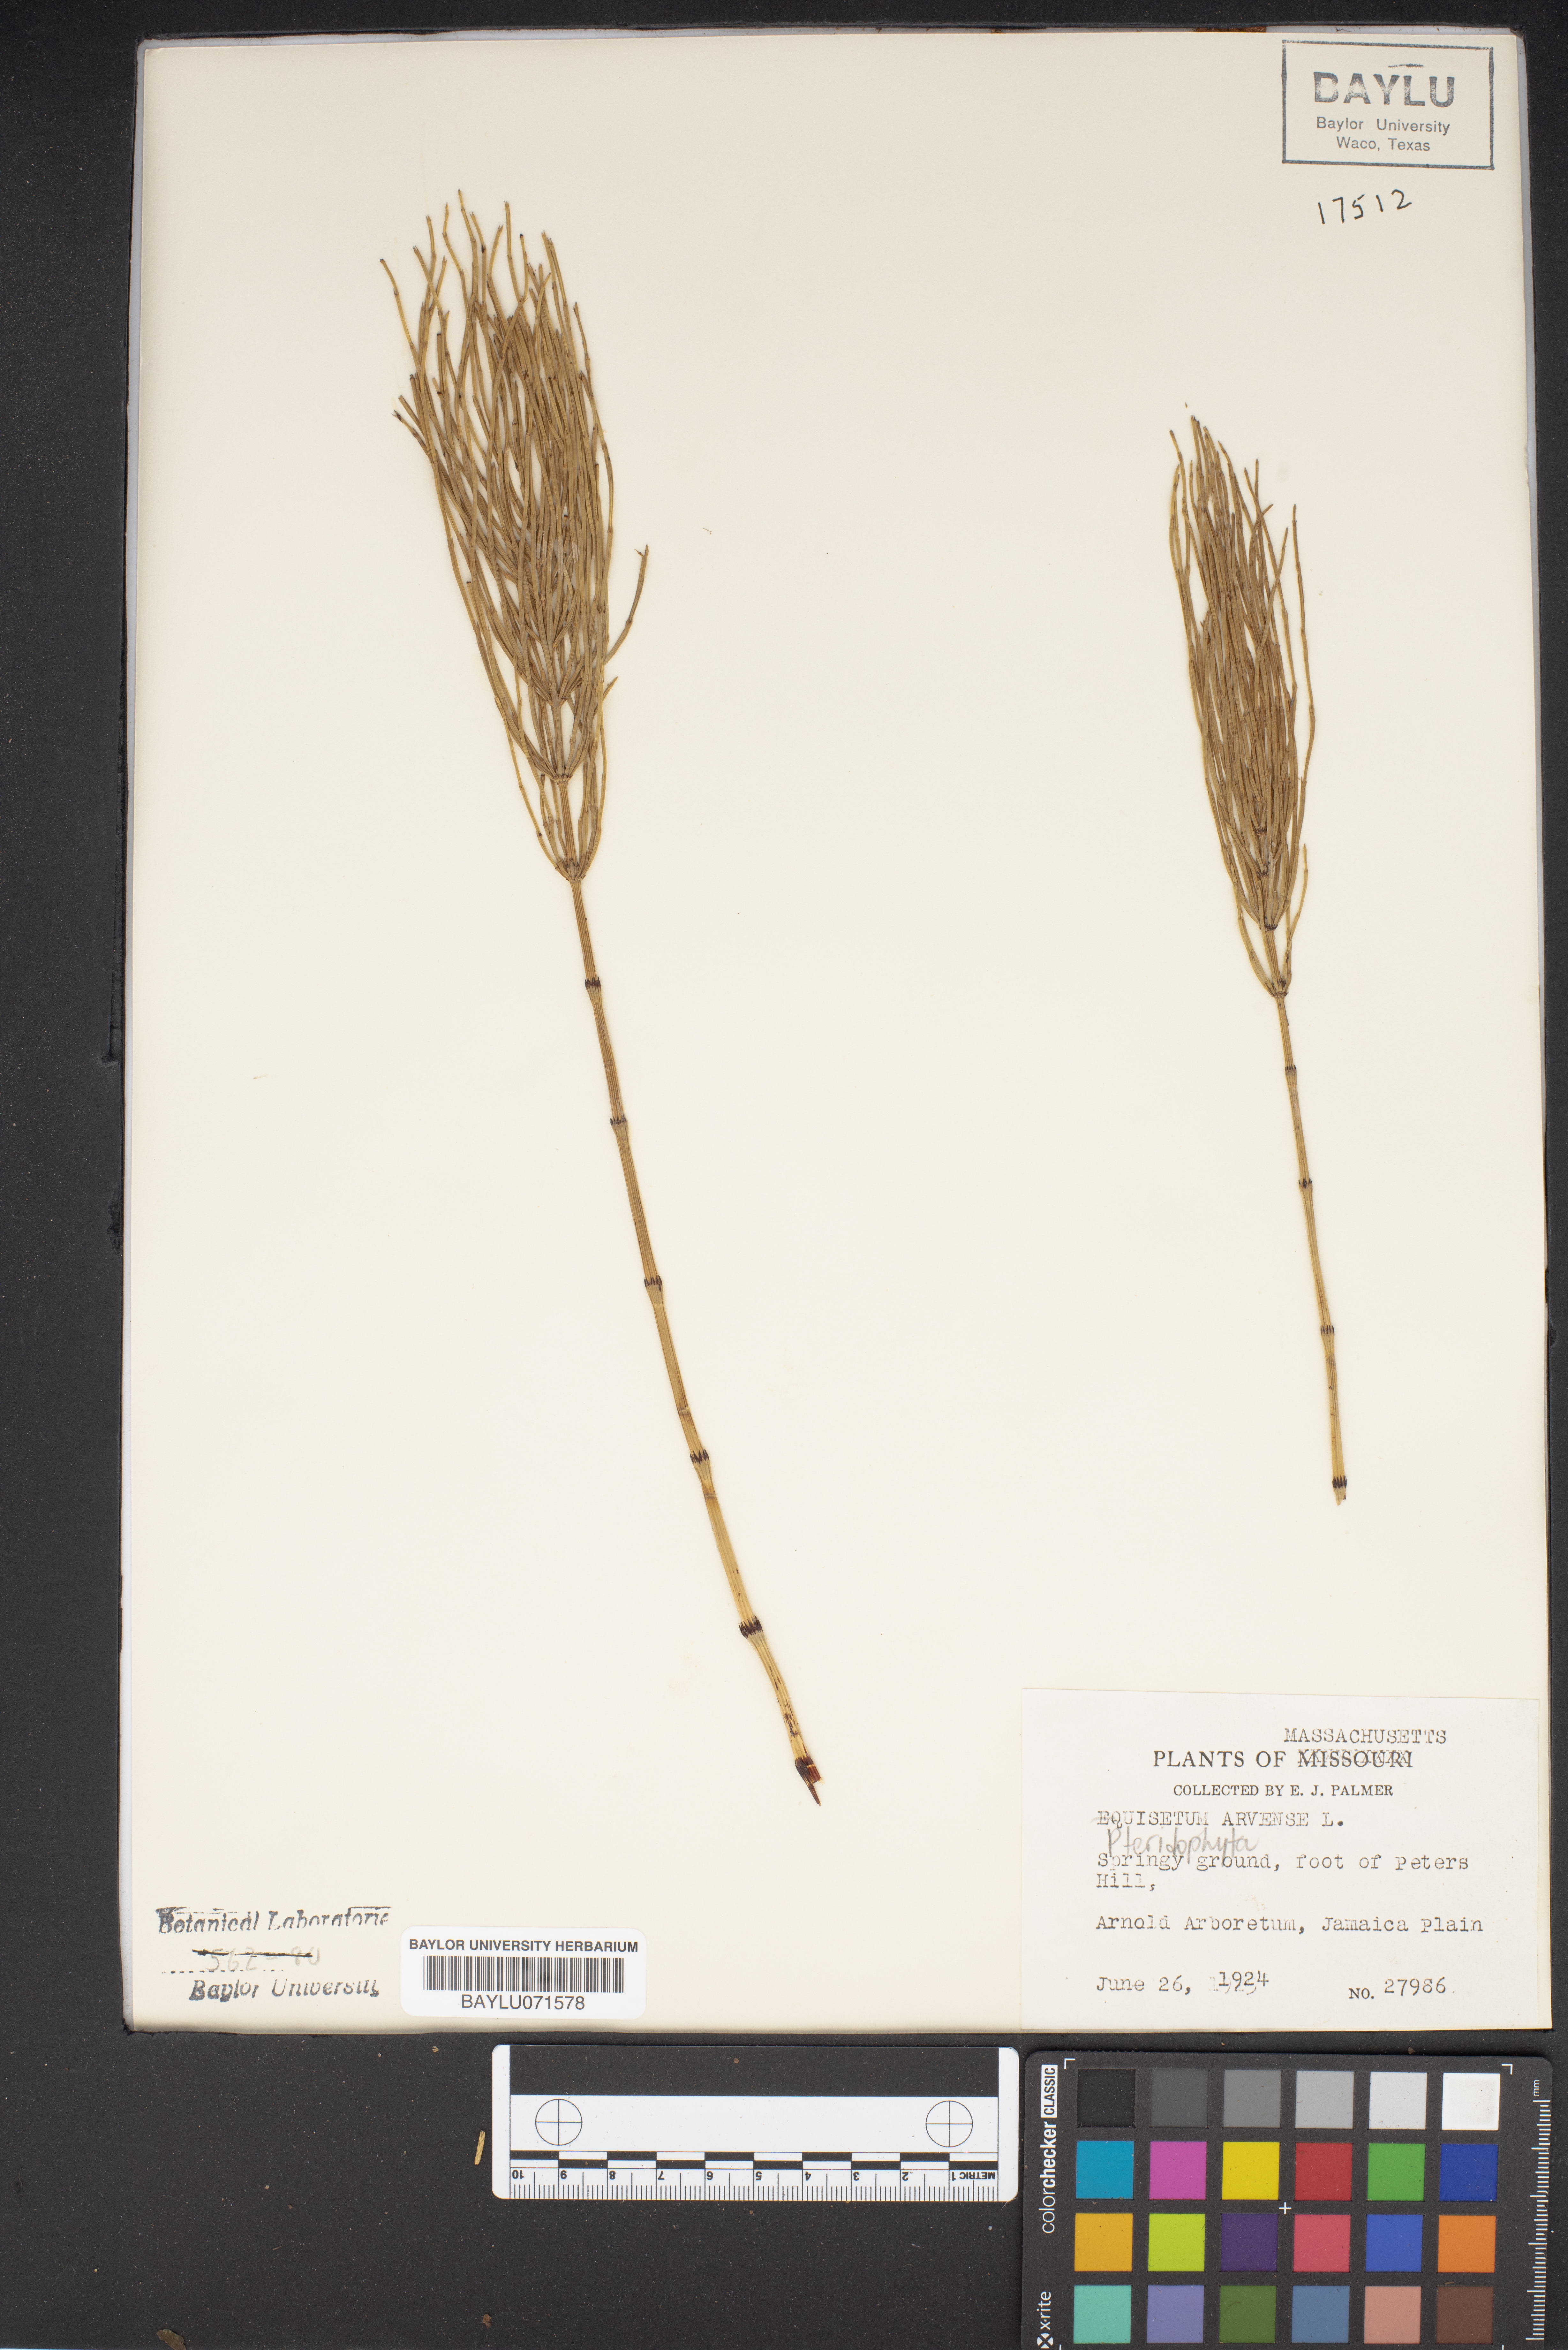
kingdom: Plantae
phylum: Tracheophyta
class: Polypodiopsida
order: Equisetales
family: Equisetaceae
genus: Equisetum
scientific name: Equisetum arvense
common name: Field horsetail
